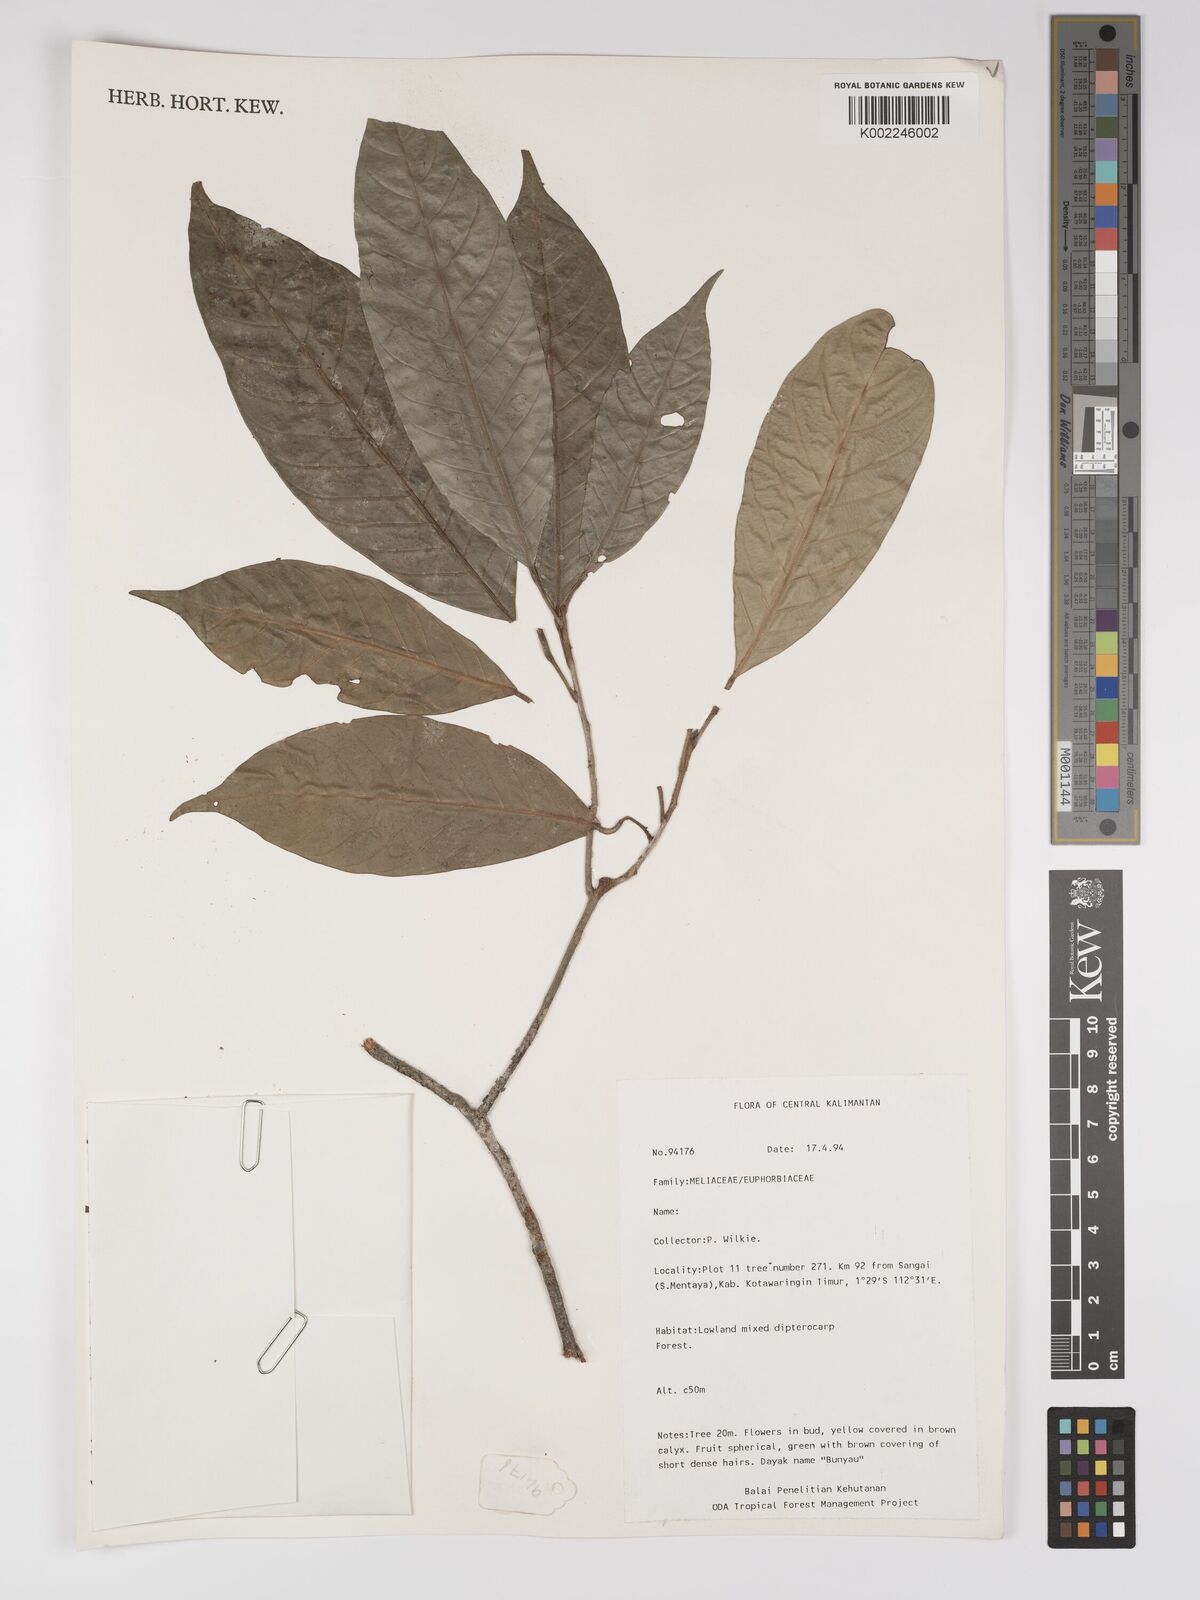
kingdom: Plantae
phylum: Tracheophyta
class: Magnoliopsida
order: Malpighiales
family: Euphorbiaceae
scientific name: Euphorbiaceae
